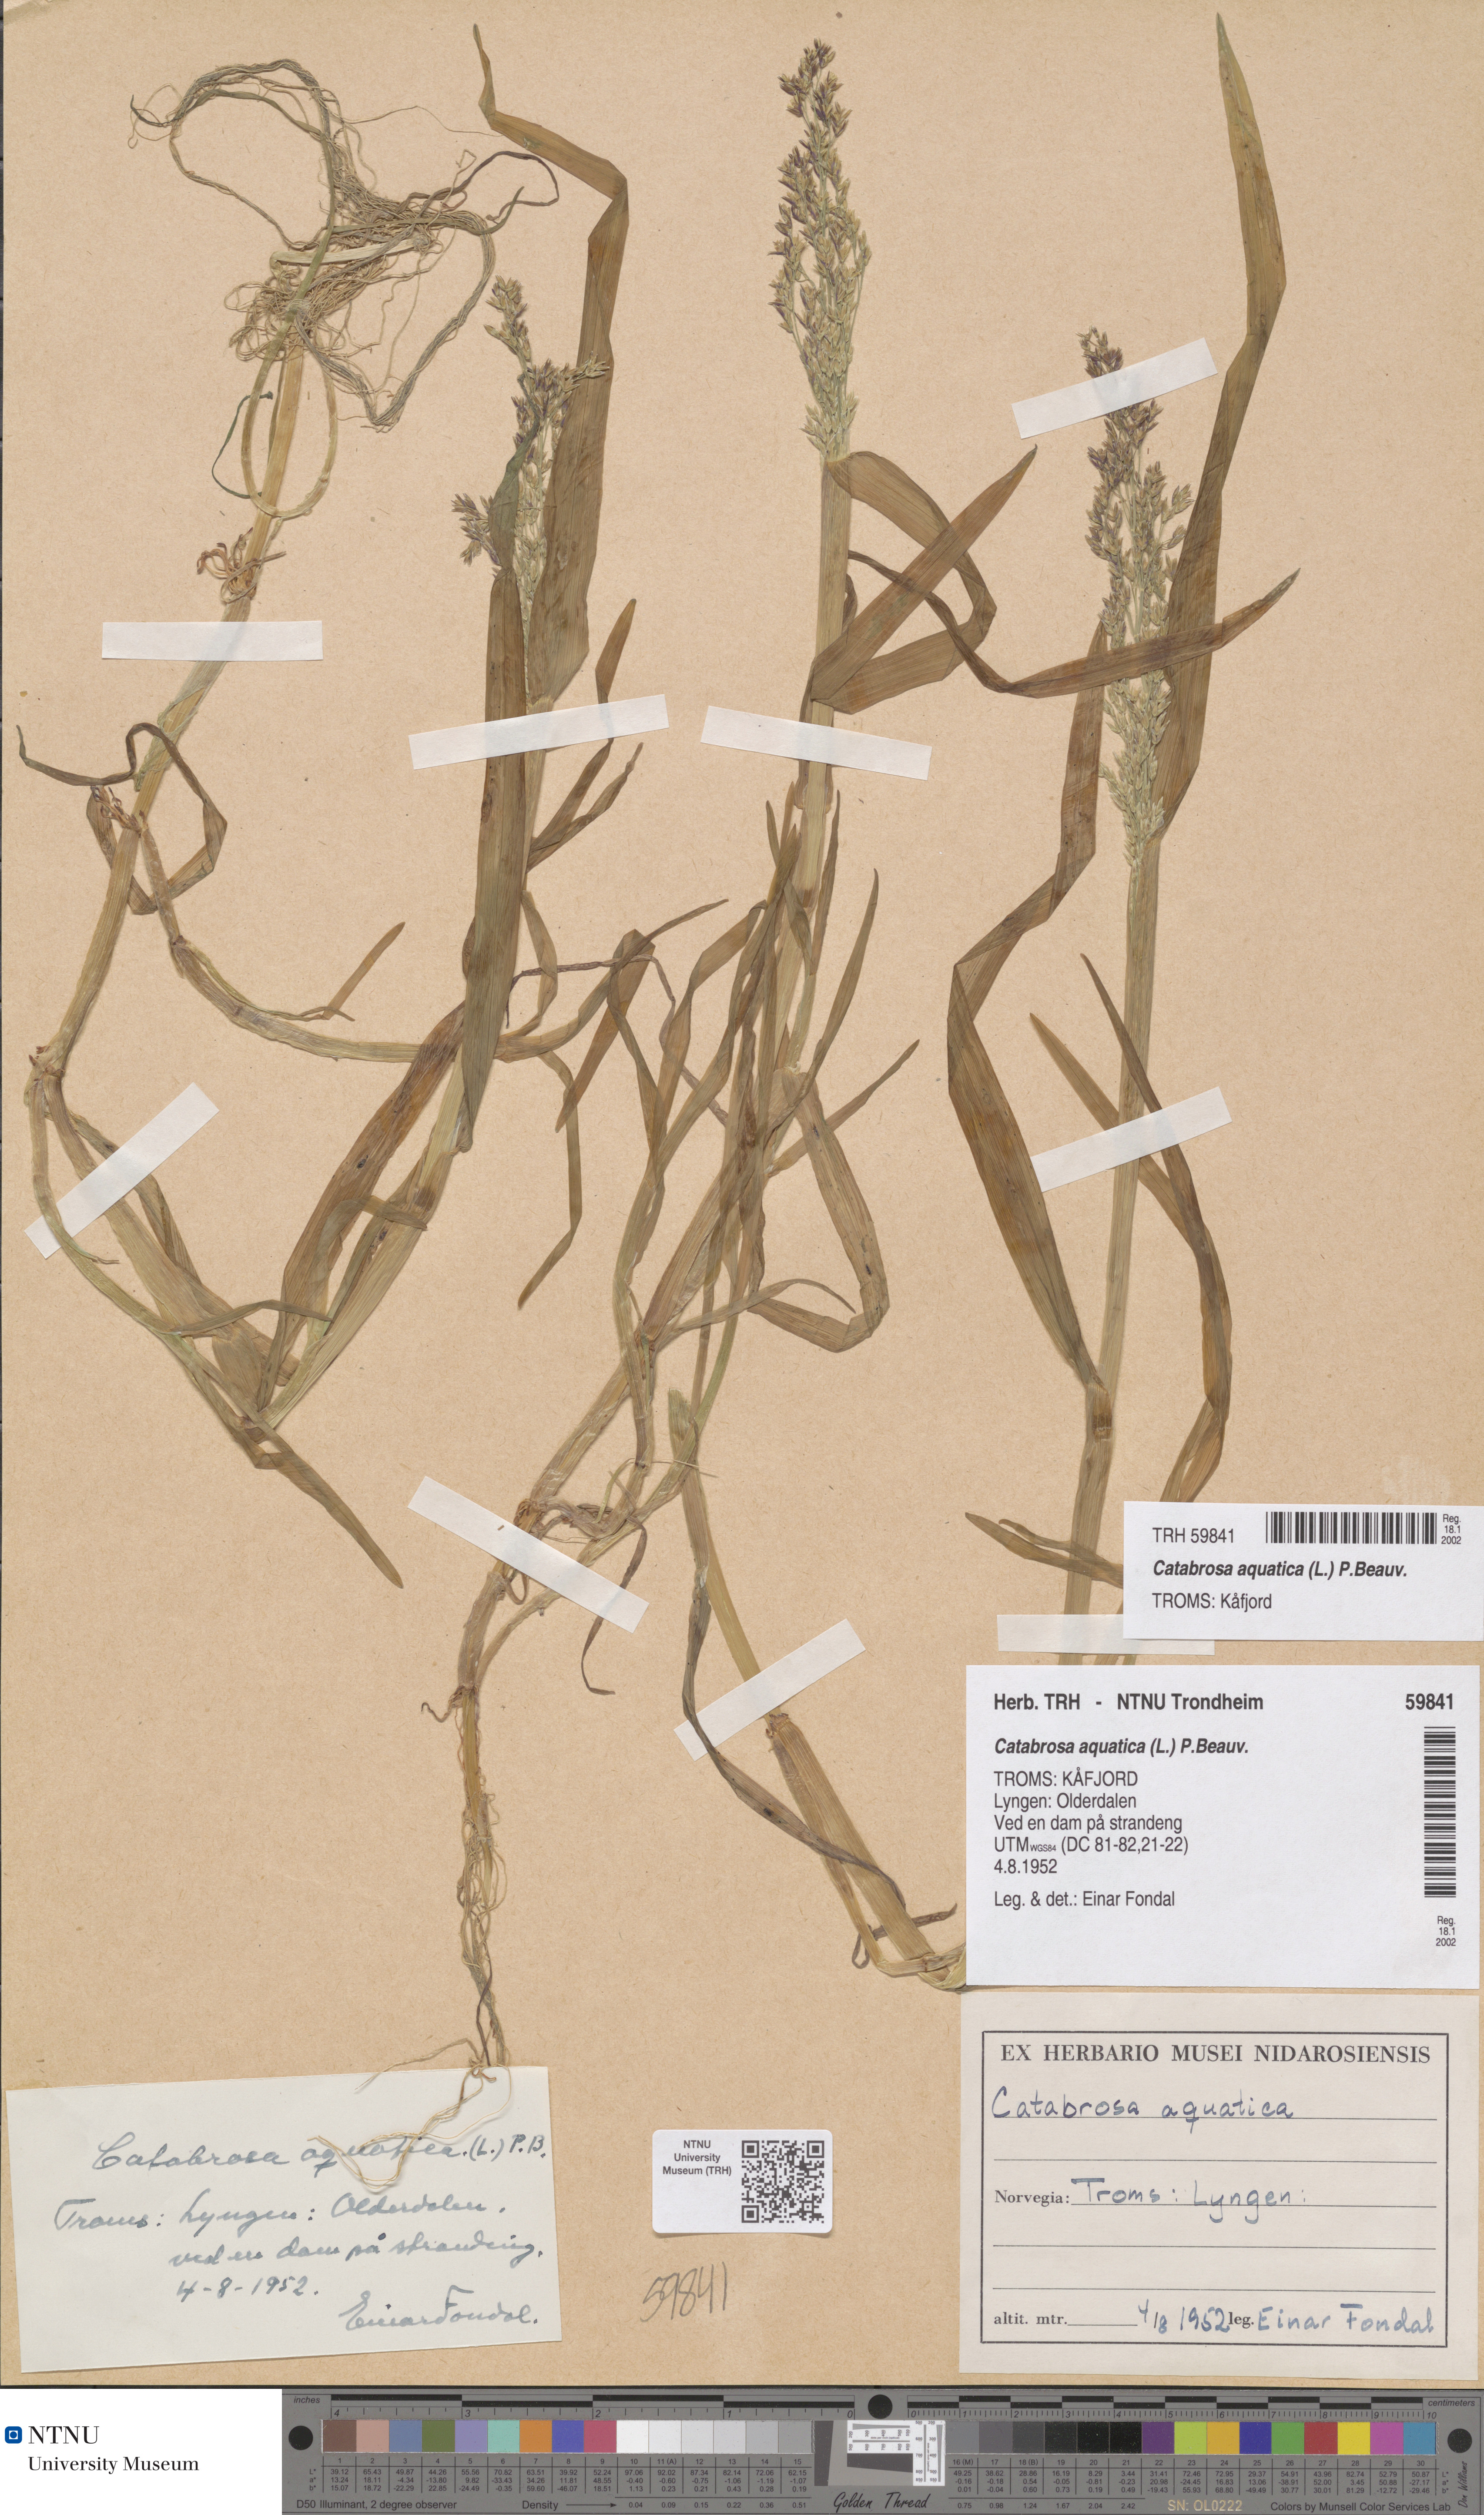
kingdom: Plantae
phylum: Tracheophyta
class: Liliopsida
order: Poales
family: Poaceae
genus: Catabrosa
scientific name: Catabrosa aquatica
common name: Whorl-grass
